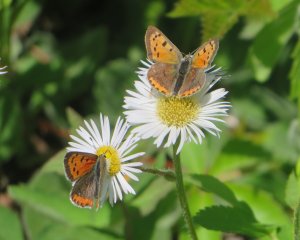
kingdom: Animalia
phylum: Arthropoda
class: Insecta
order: Lepidoptera
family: Lycaenidae
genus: Lycaena
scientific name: Lycaena phlaeas
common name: American Copper
